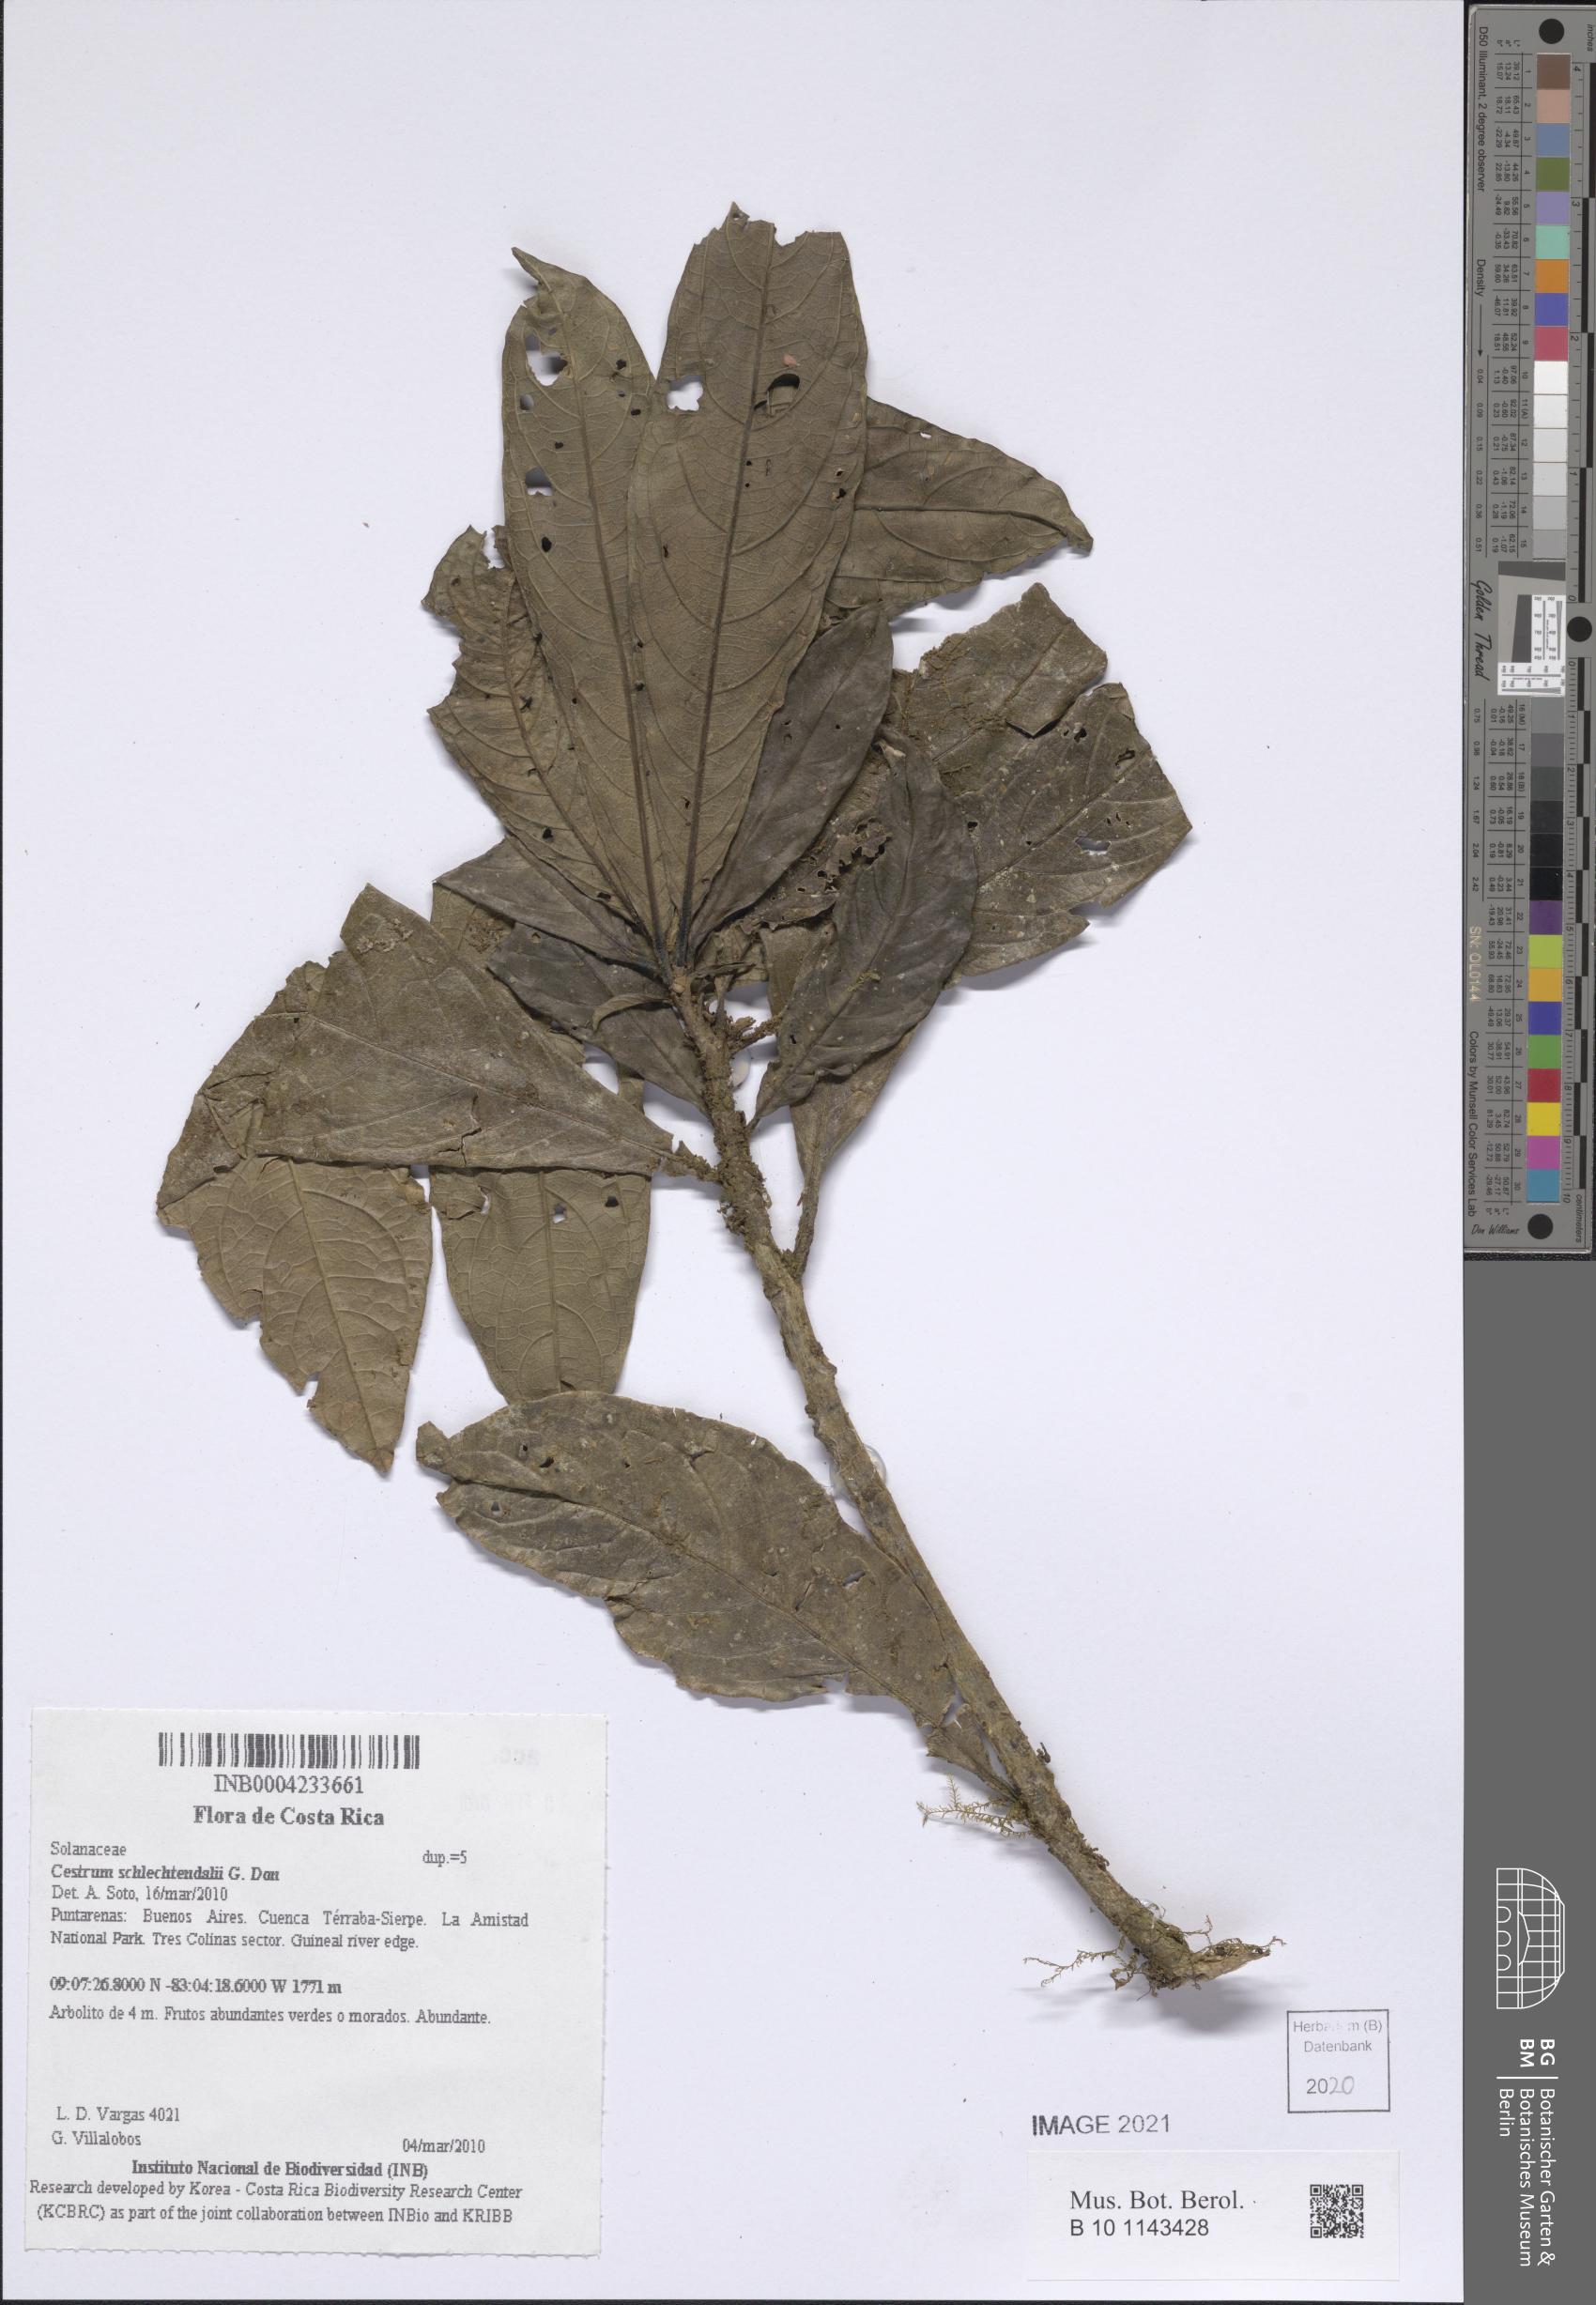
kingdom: Plantae
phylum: Tracheophyta
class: Magnoliopsida
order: Solanales
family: Solanaceae
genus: Cestrum
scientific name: Cestrum schlechtendalii
